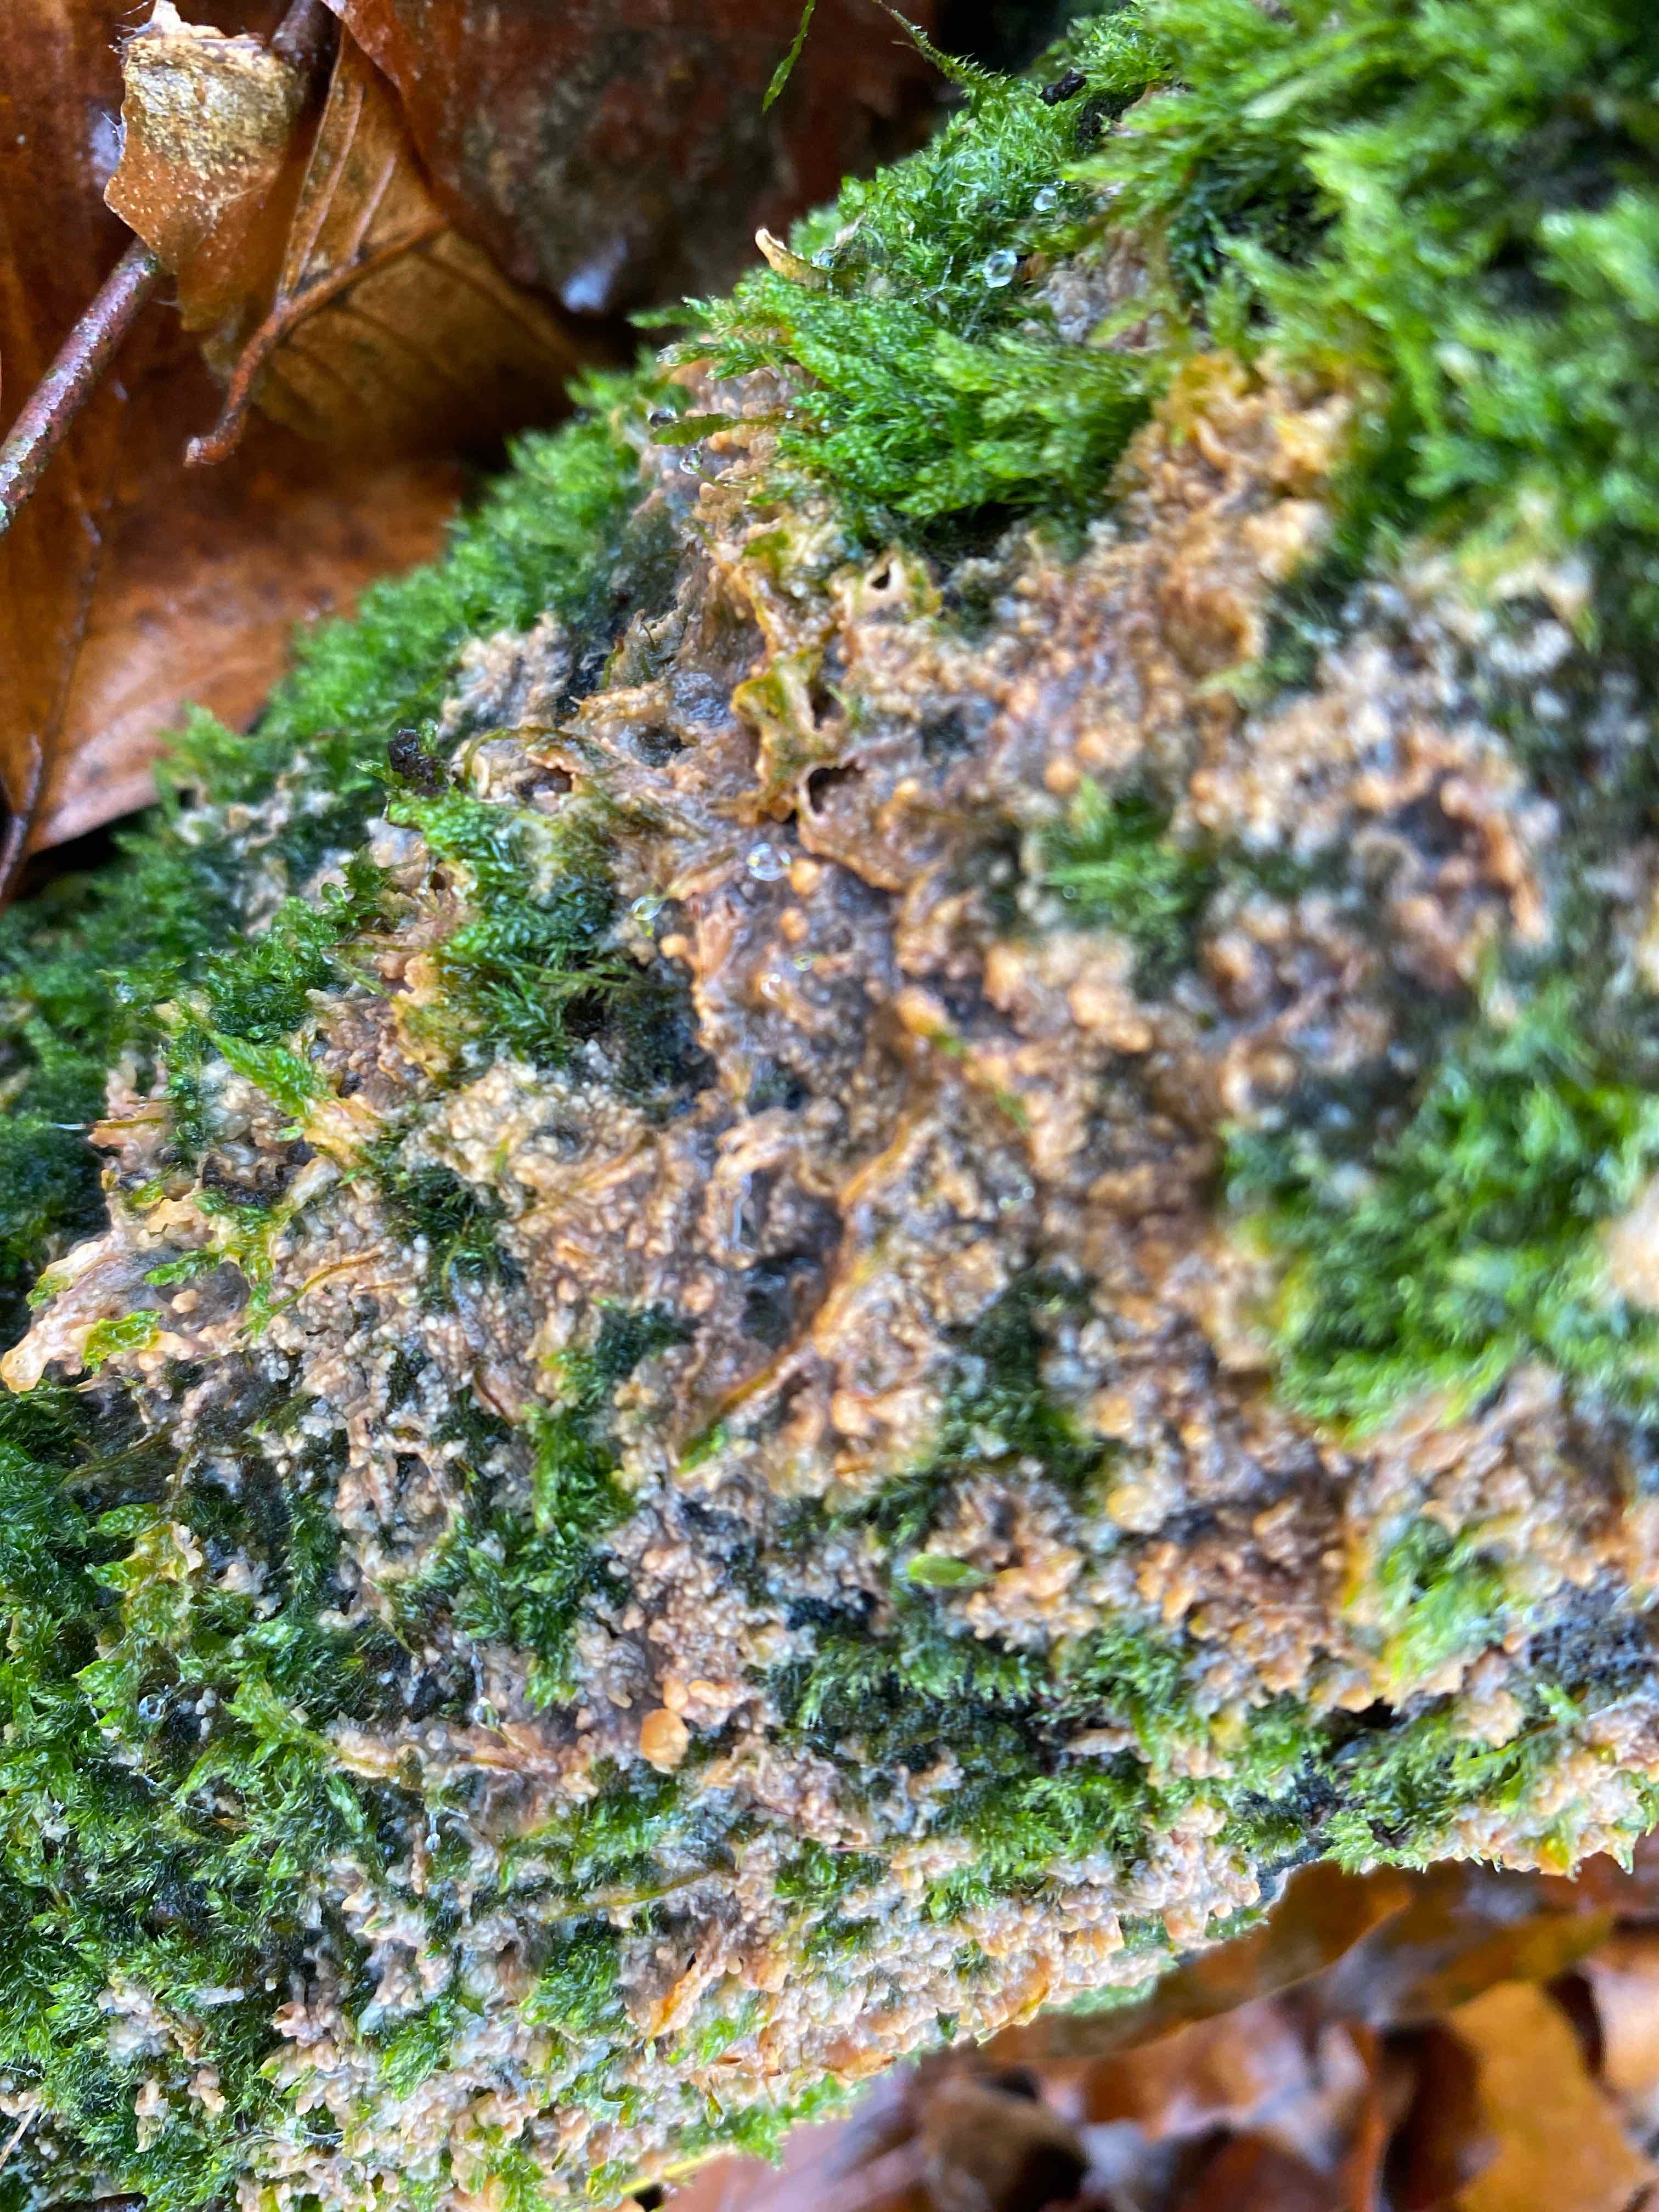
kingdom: Fungi
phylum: Basidiomycota
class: Agaricomycetes
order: Polyporales
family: Meruliaceae
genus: Phlebia
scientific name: Phlebia radiata
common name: stråle-åresvamp
